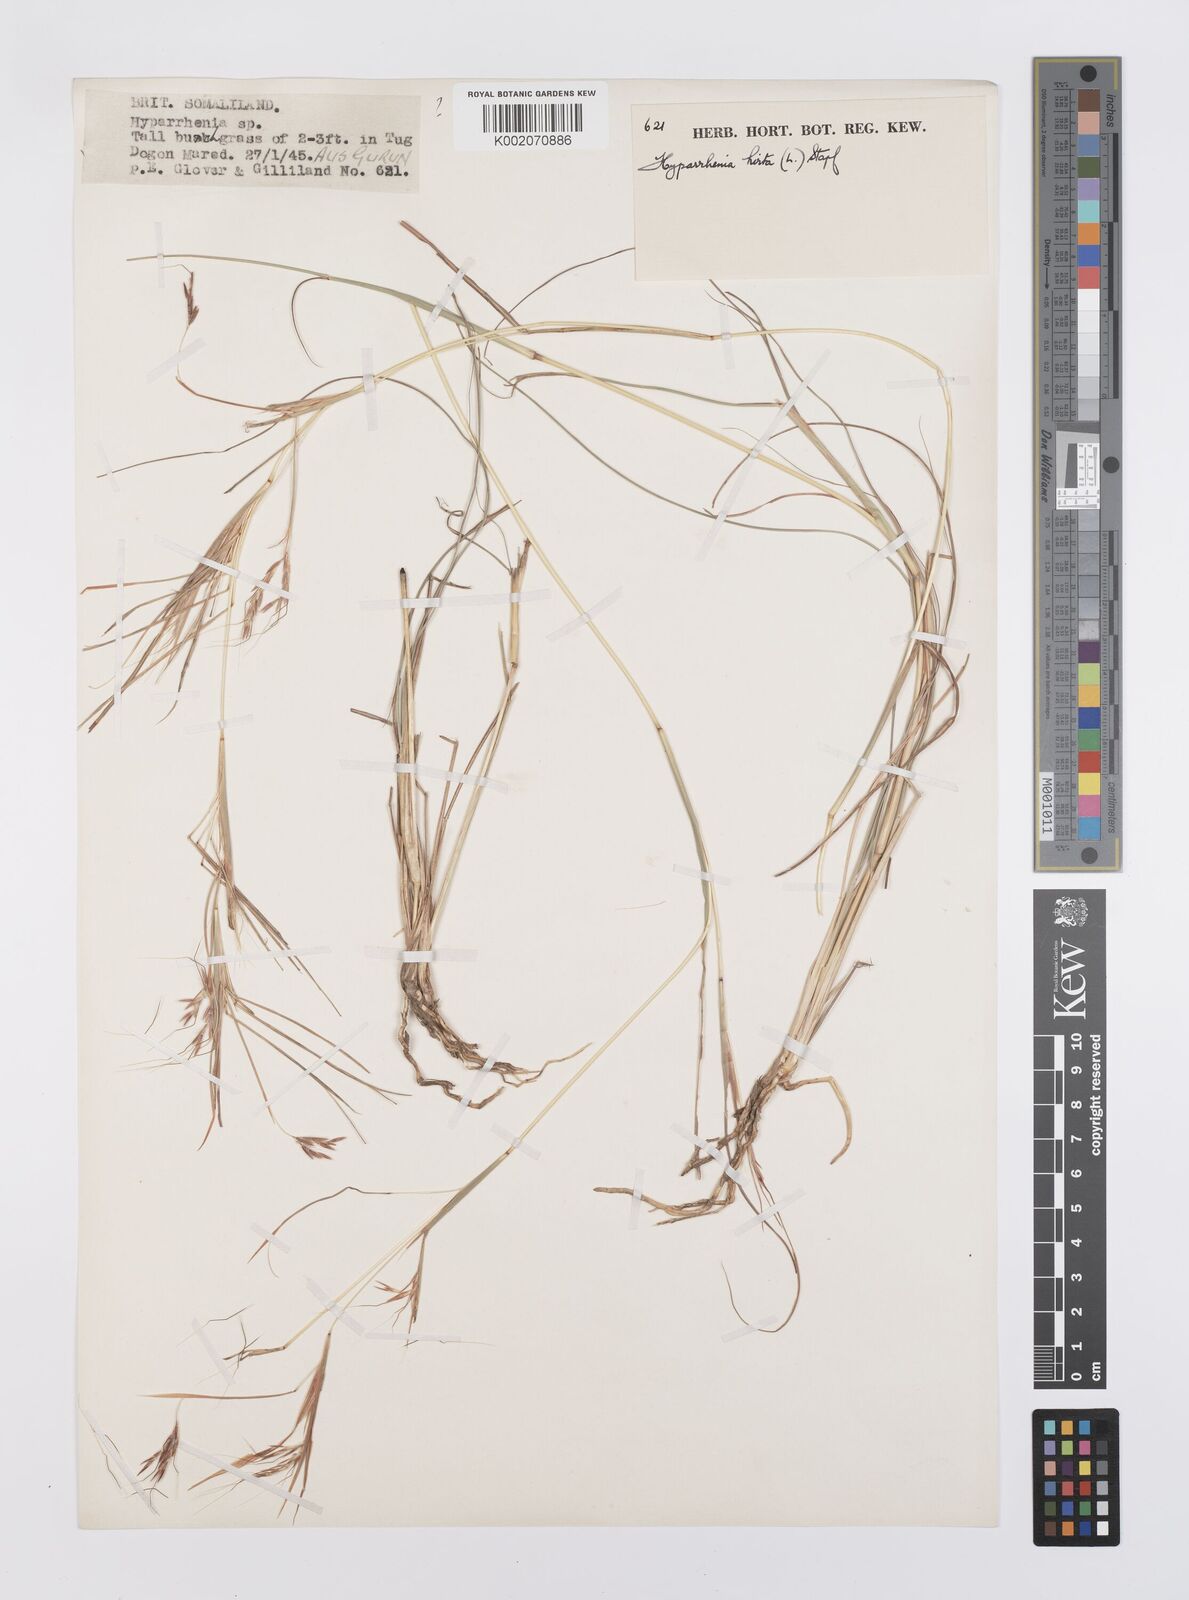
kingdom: Plantae
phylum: Tracheophyta
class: Liliopsida
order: Poales
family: Poaceae
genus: Hyparrhenia
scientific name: Hyparrhenia hirta
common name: Thatching grass
